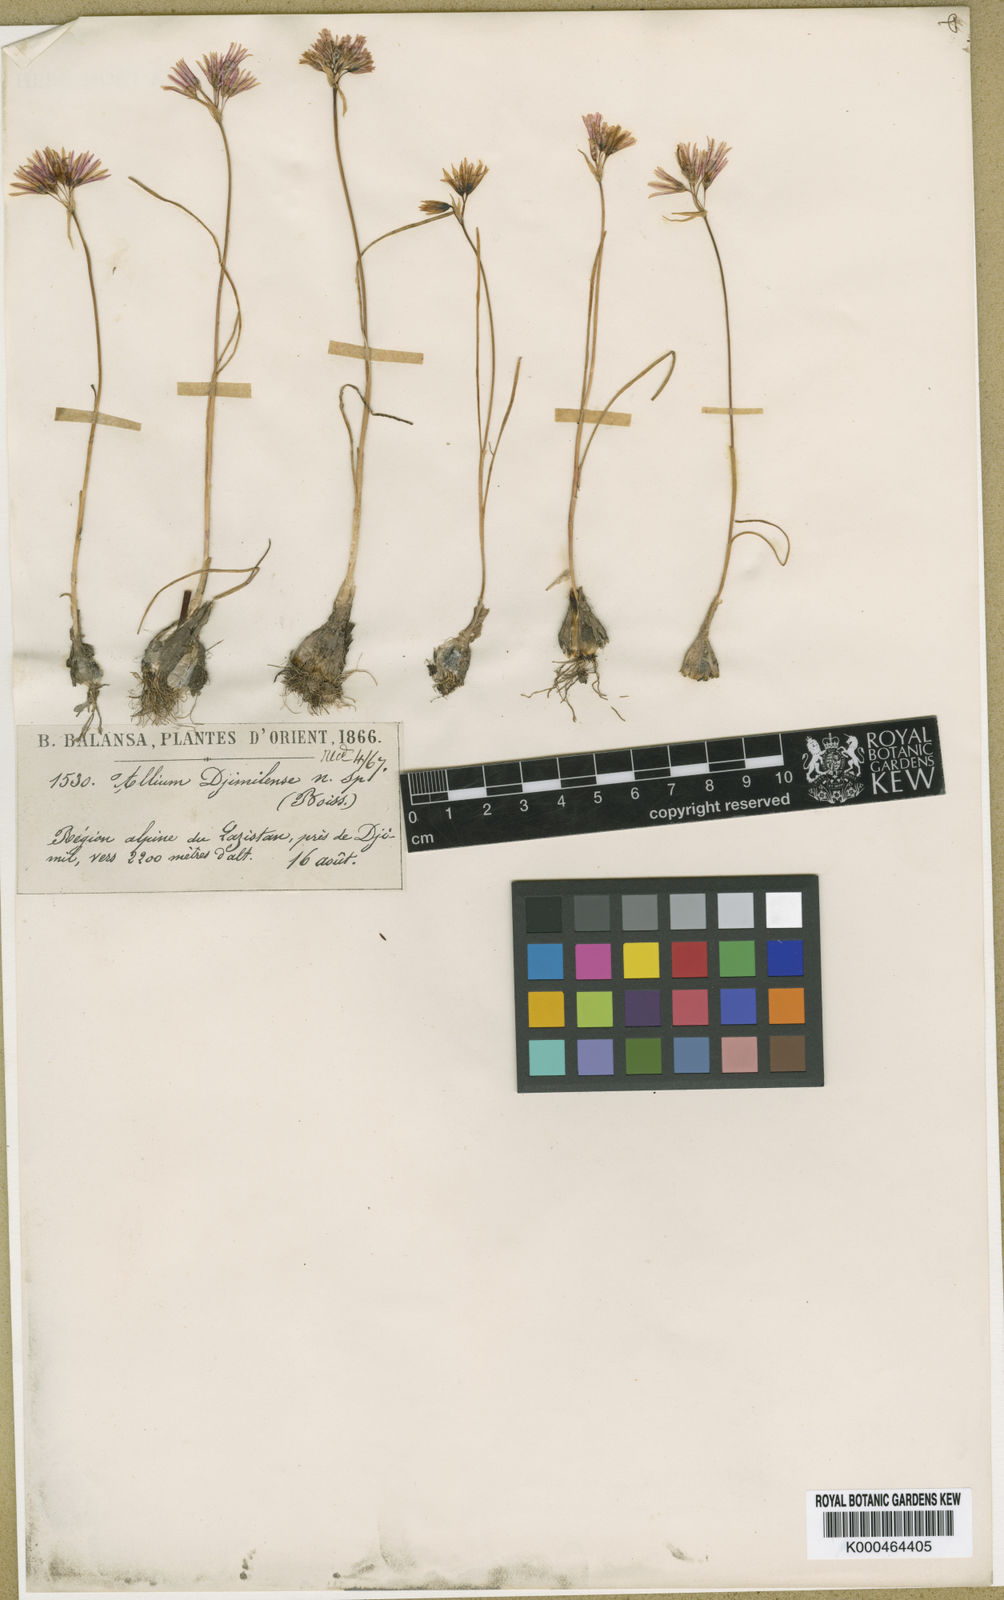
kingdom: Plantae
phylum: Tracheophyta
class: Liliopsida
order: Asparagales
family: Amaryllidaceae
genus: Allium
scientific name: Allium djimilense
